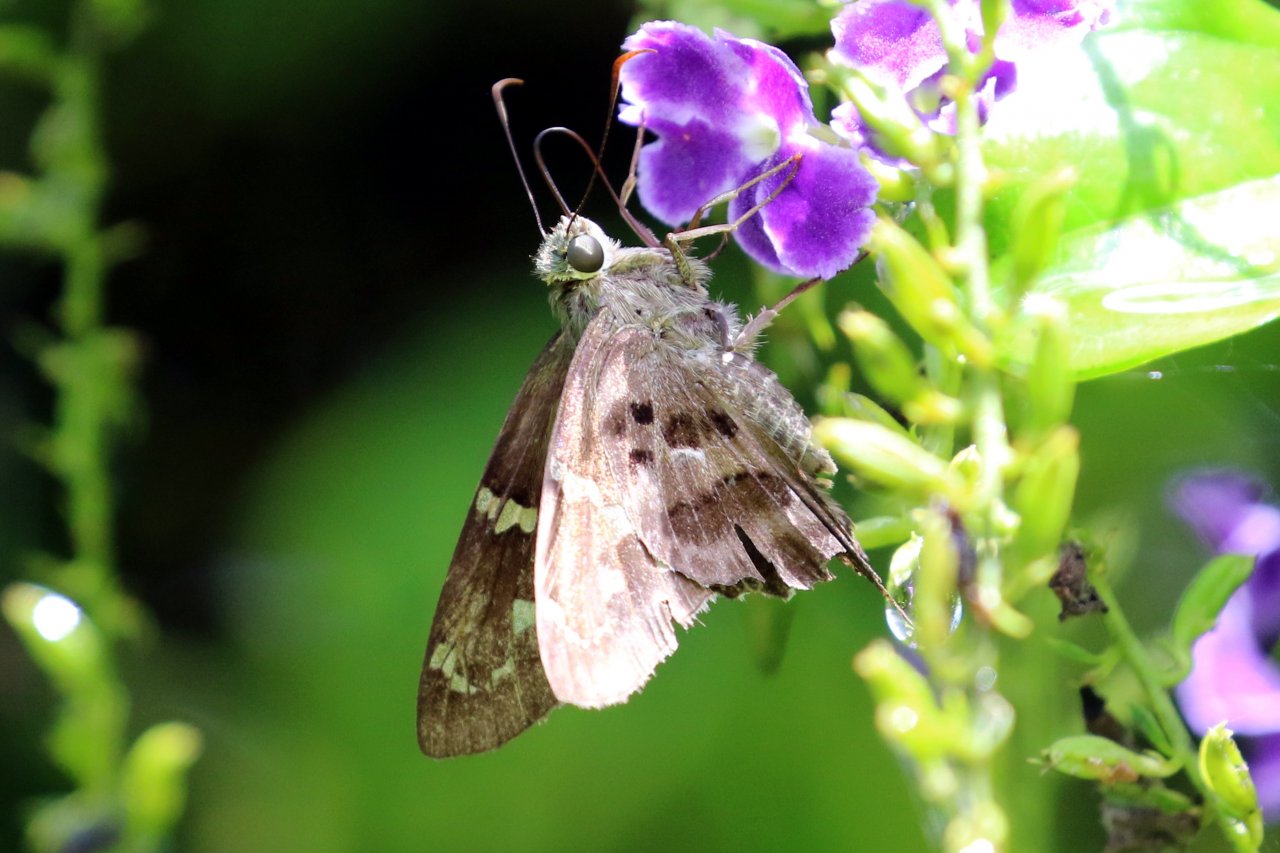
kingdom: Animalia
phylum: Arthropoda
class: Insecta
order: Lepidoptera
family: Hesperiidae
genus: Urbanus
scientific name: Urbanus proteus
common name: Long-tailed Skipper
